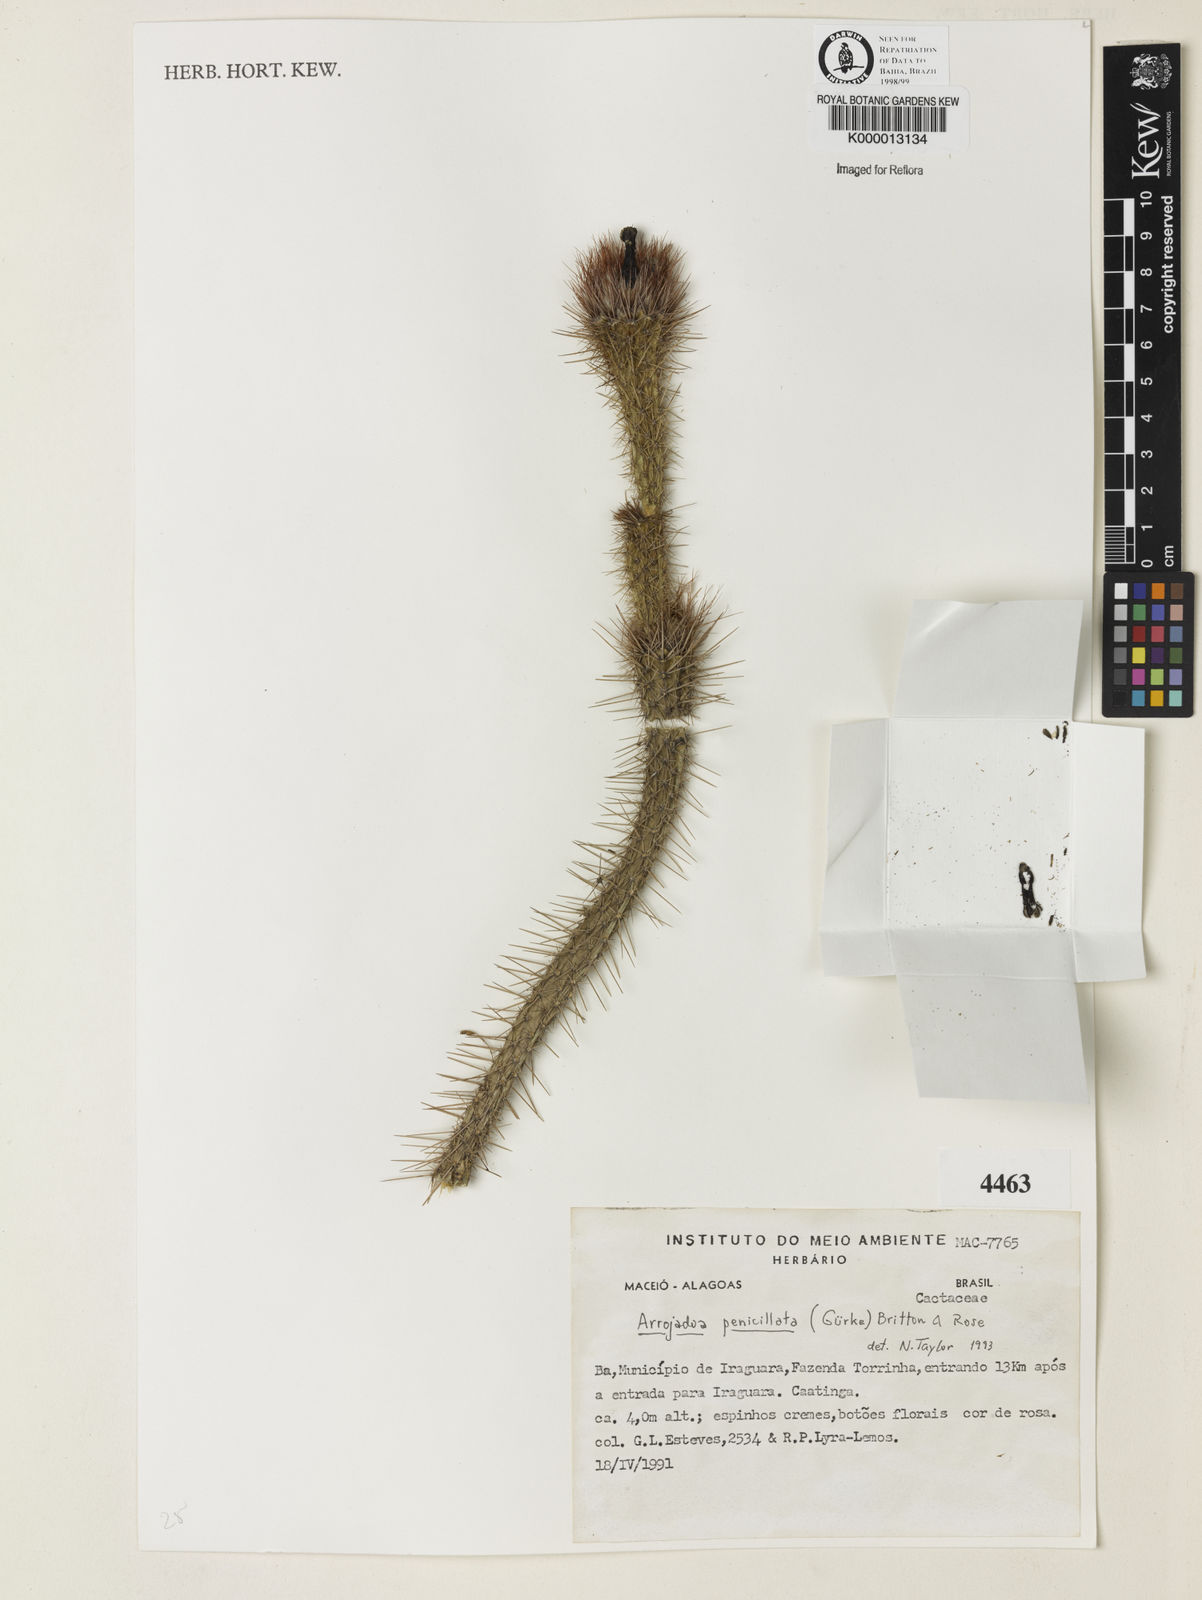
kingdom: Plantae
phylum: Tracheophyta
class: Magnoliopsida
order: Caryophyllales
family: Cactaceae
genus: Arrojadoa
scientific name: Arrojadoa penicillata
